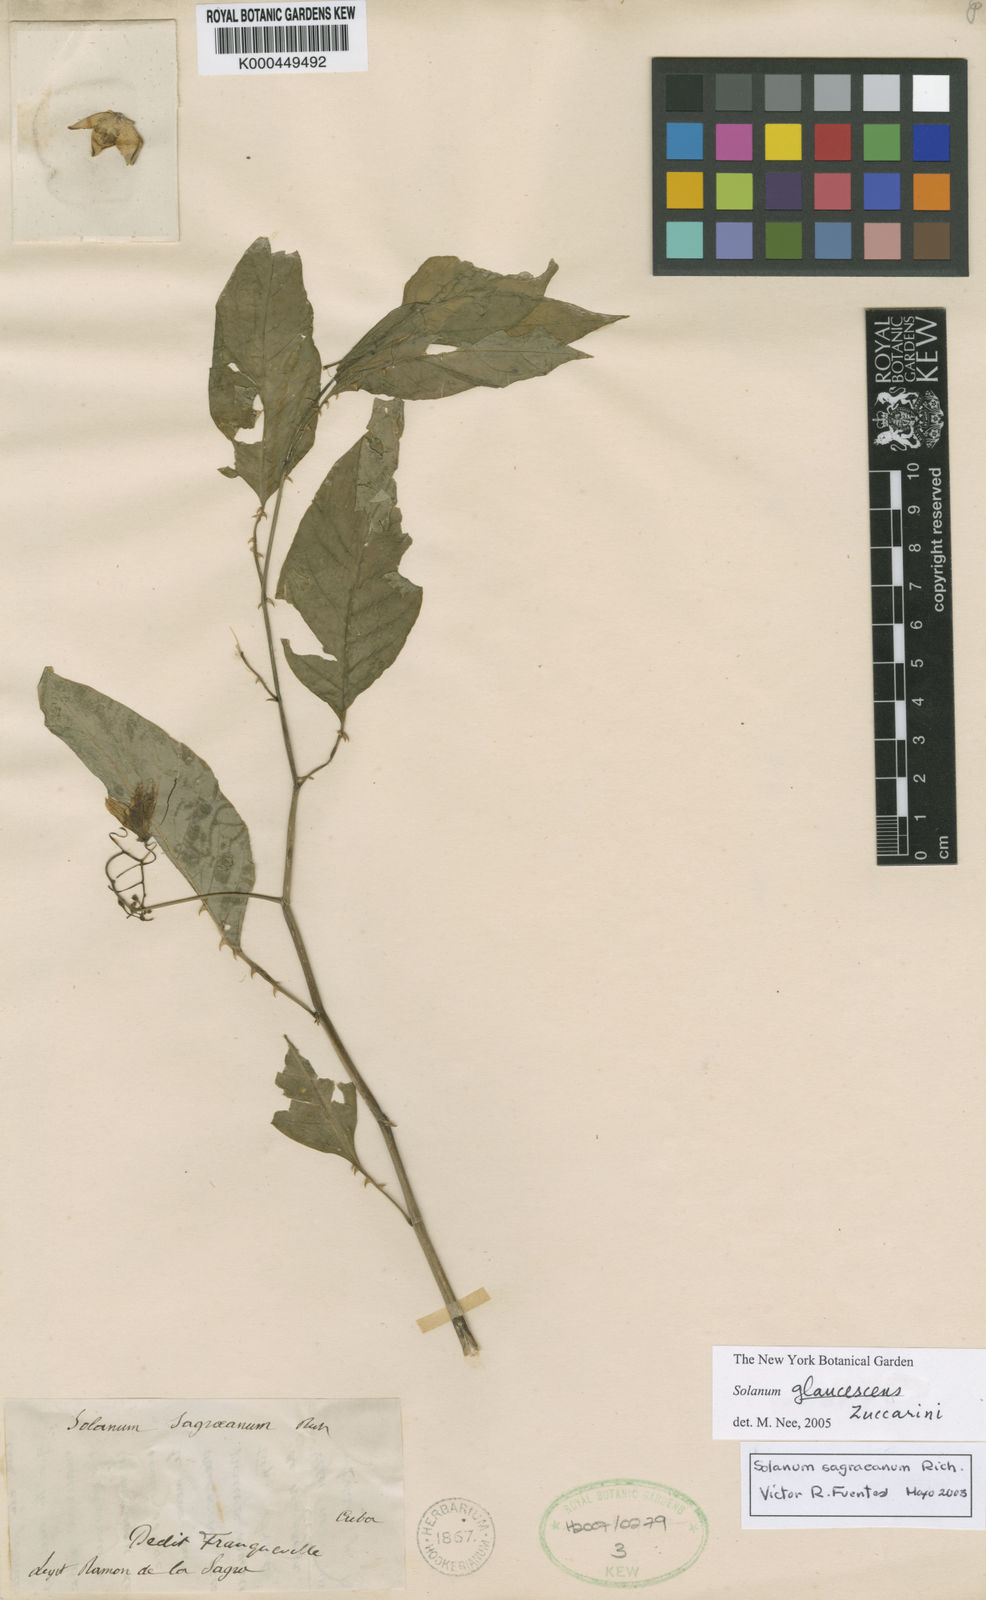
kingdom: Plantae
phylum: Tracheophyta
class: Magnoliopsida
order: Solanales
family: Solanaceae
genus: Solanum
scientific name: Solanum glaucescens
